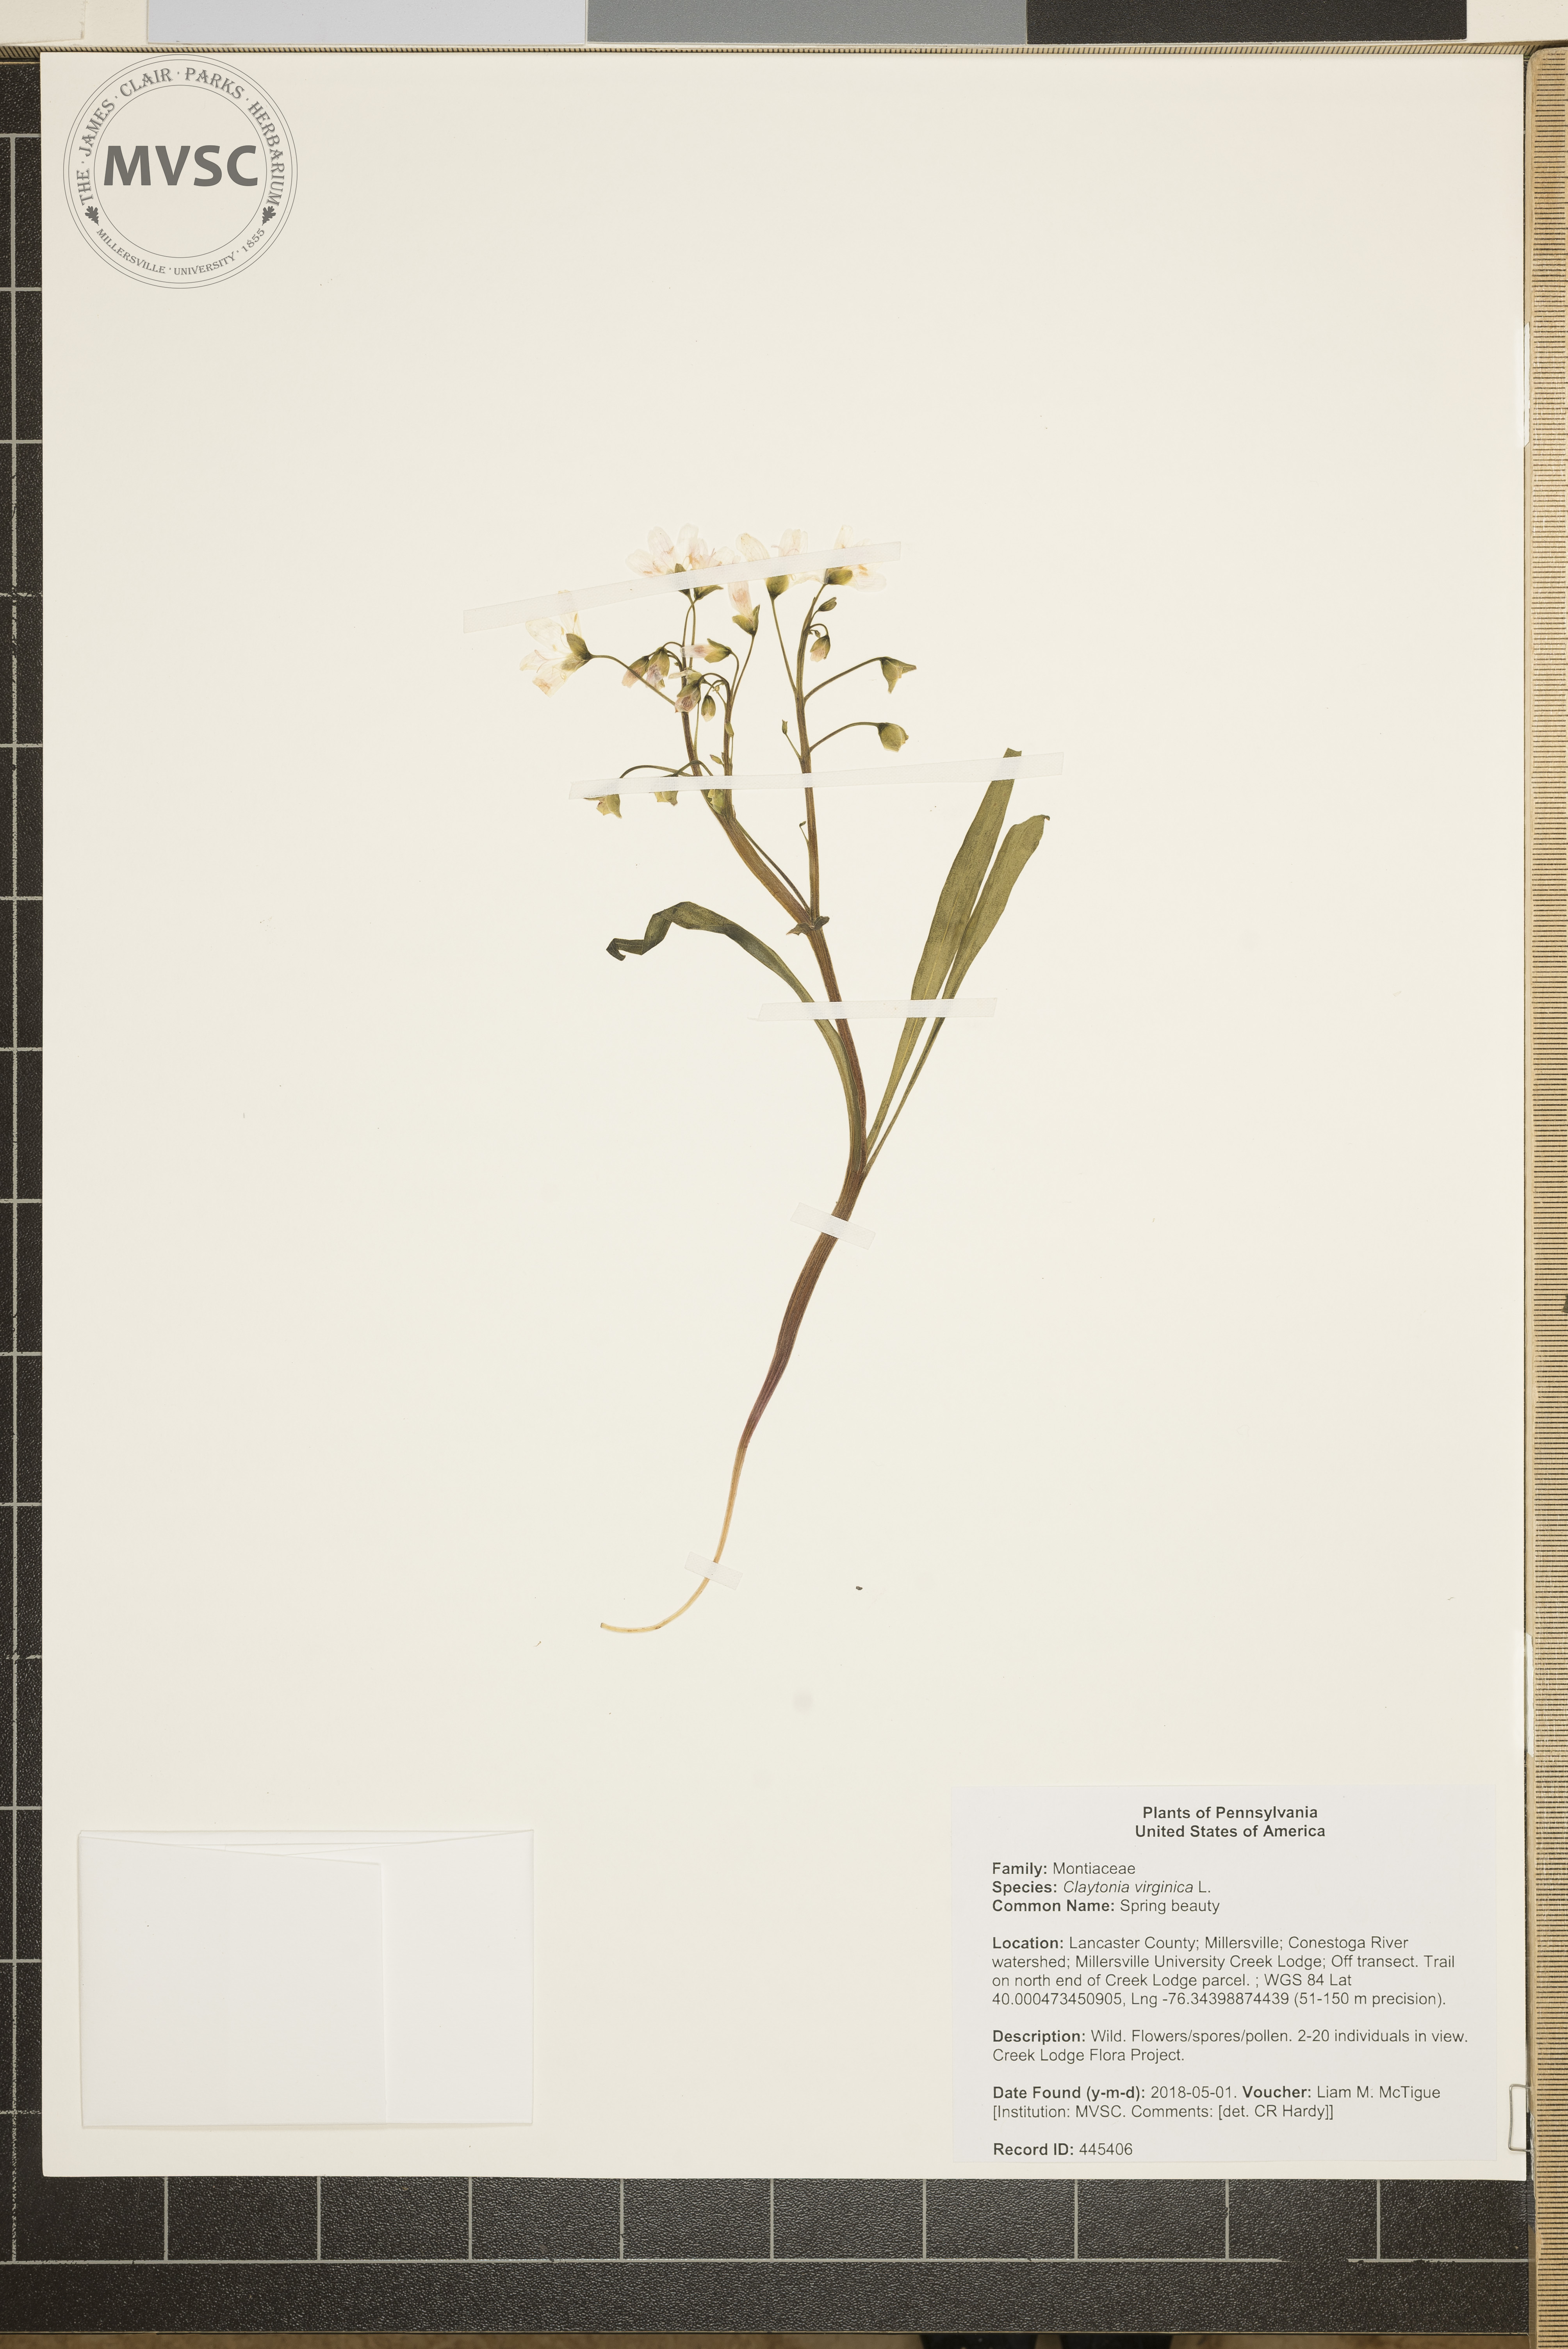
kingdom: Plantae
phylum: Tracheophyta
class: Magnoliopsida
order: Caryophyllales
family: Montiaceae
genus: Claytonia
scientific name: Claytonia virginica
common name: Spring beauty
